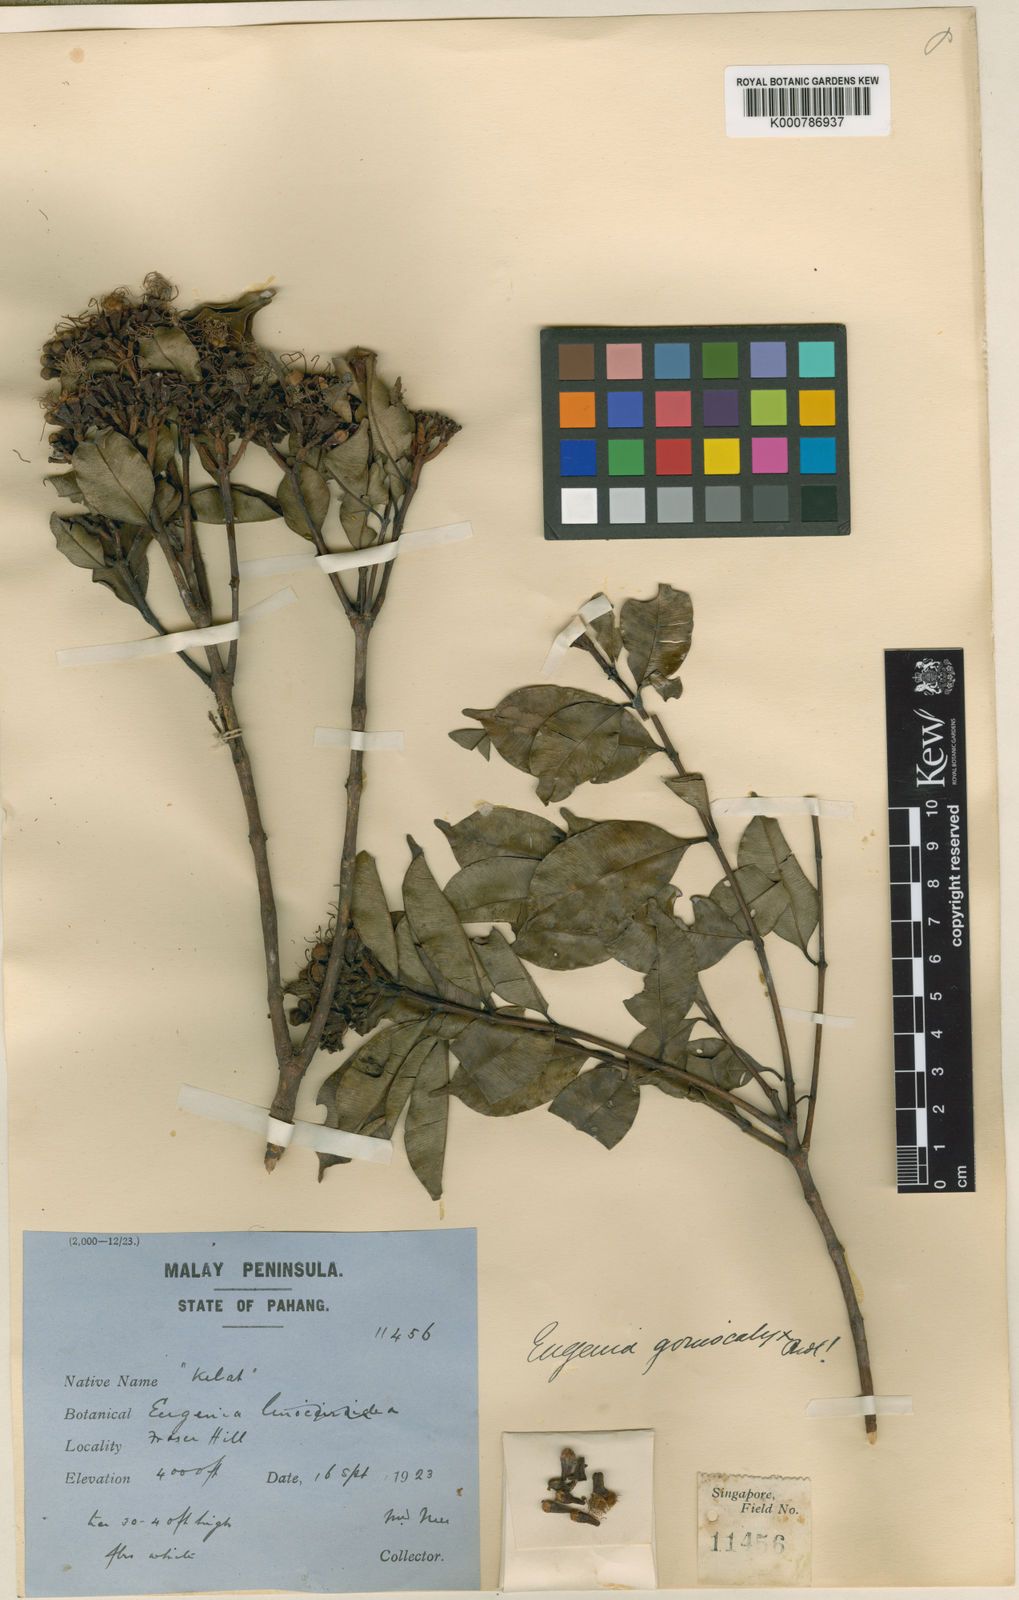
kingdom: Plantae
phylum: Tracheophyta
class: Magnoliopsida
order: Myrtales
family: Myrtaceae
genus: Syzygium
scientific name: Syzygium goniocalyx
